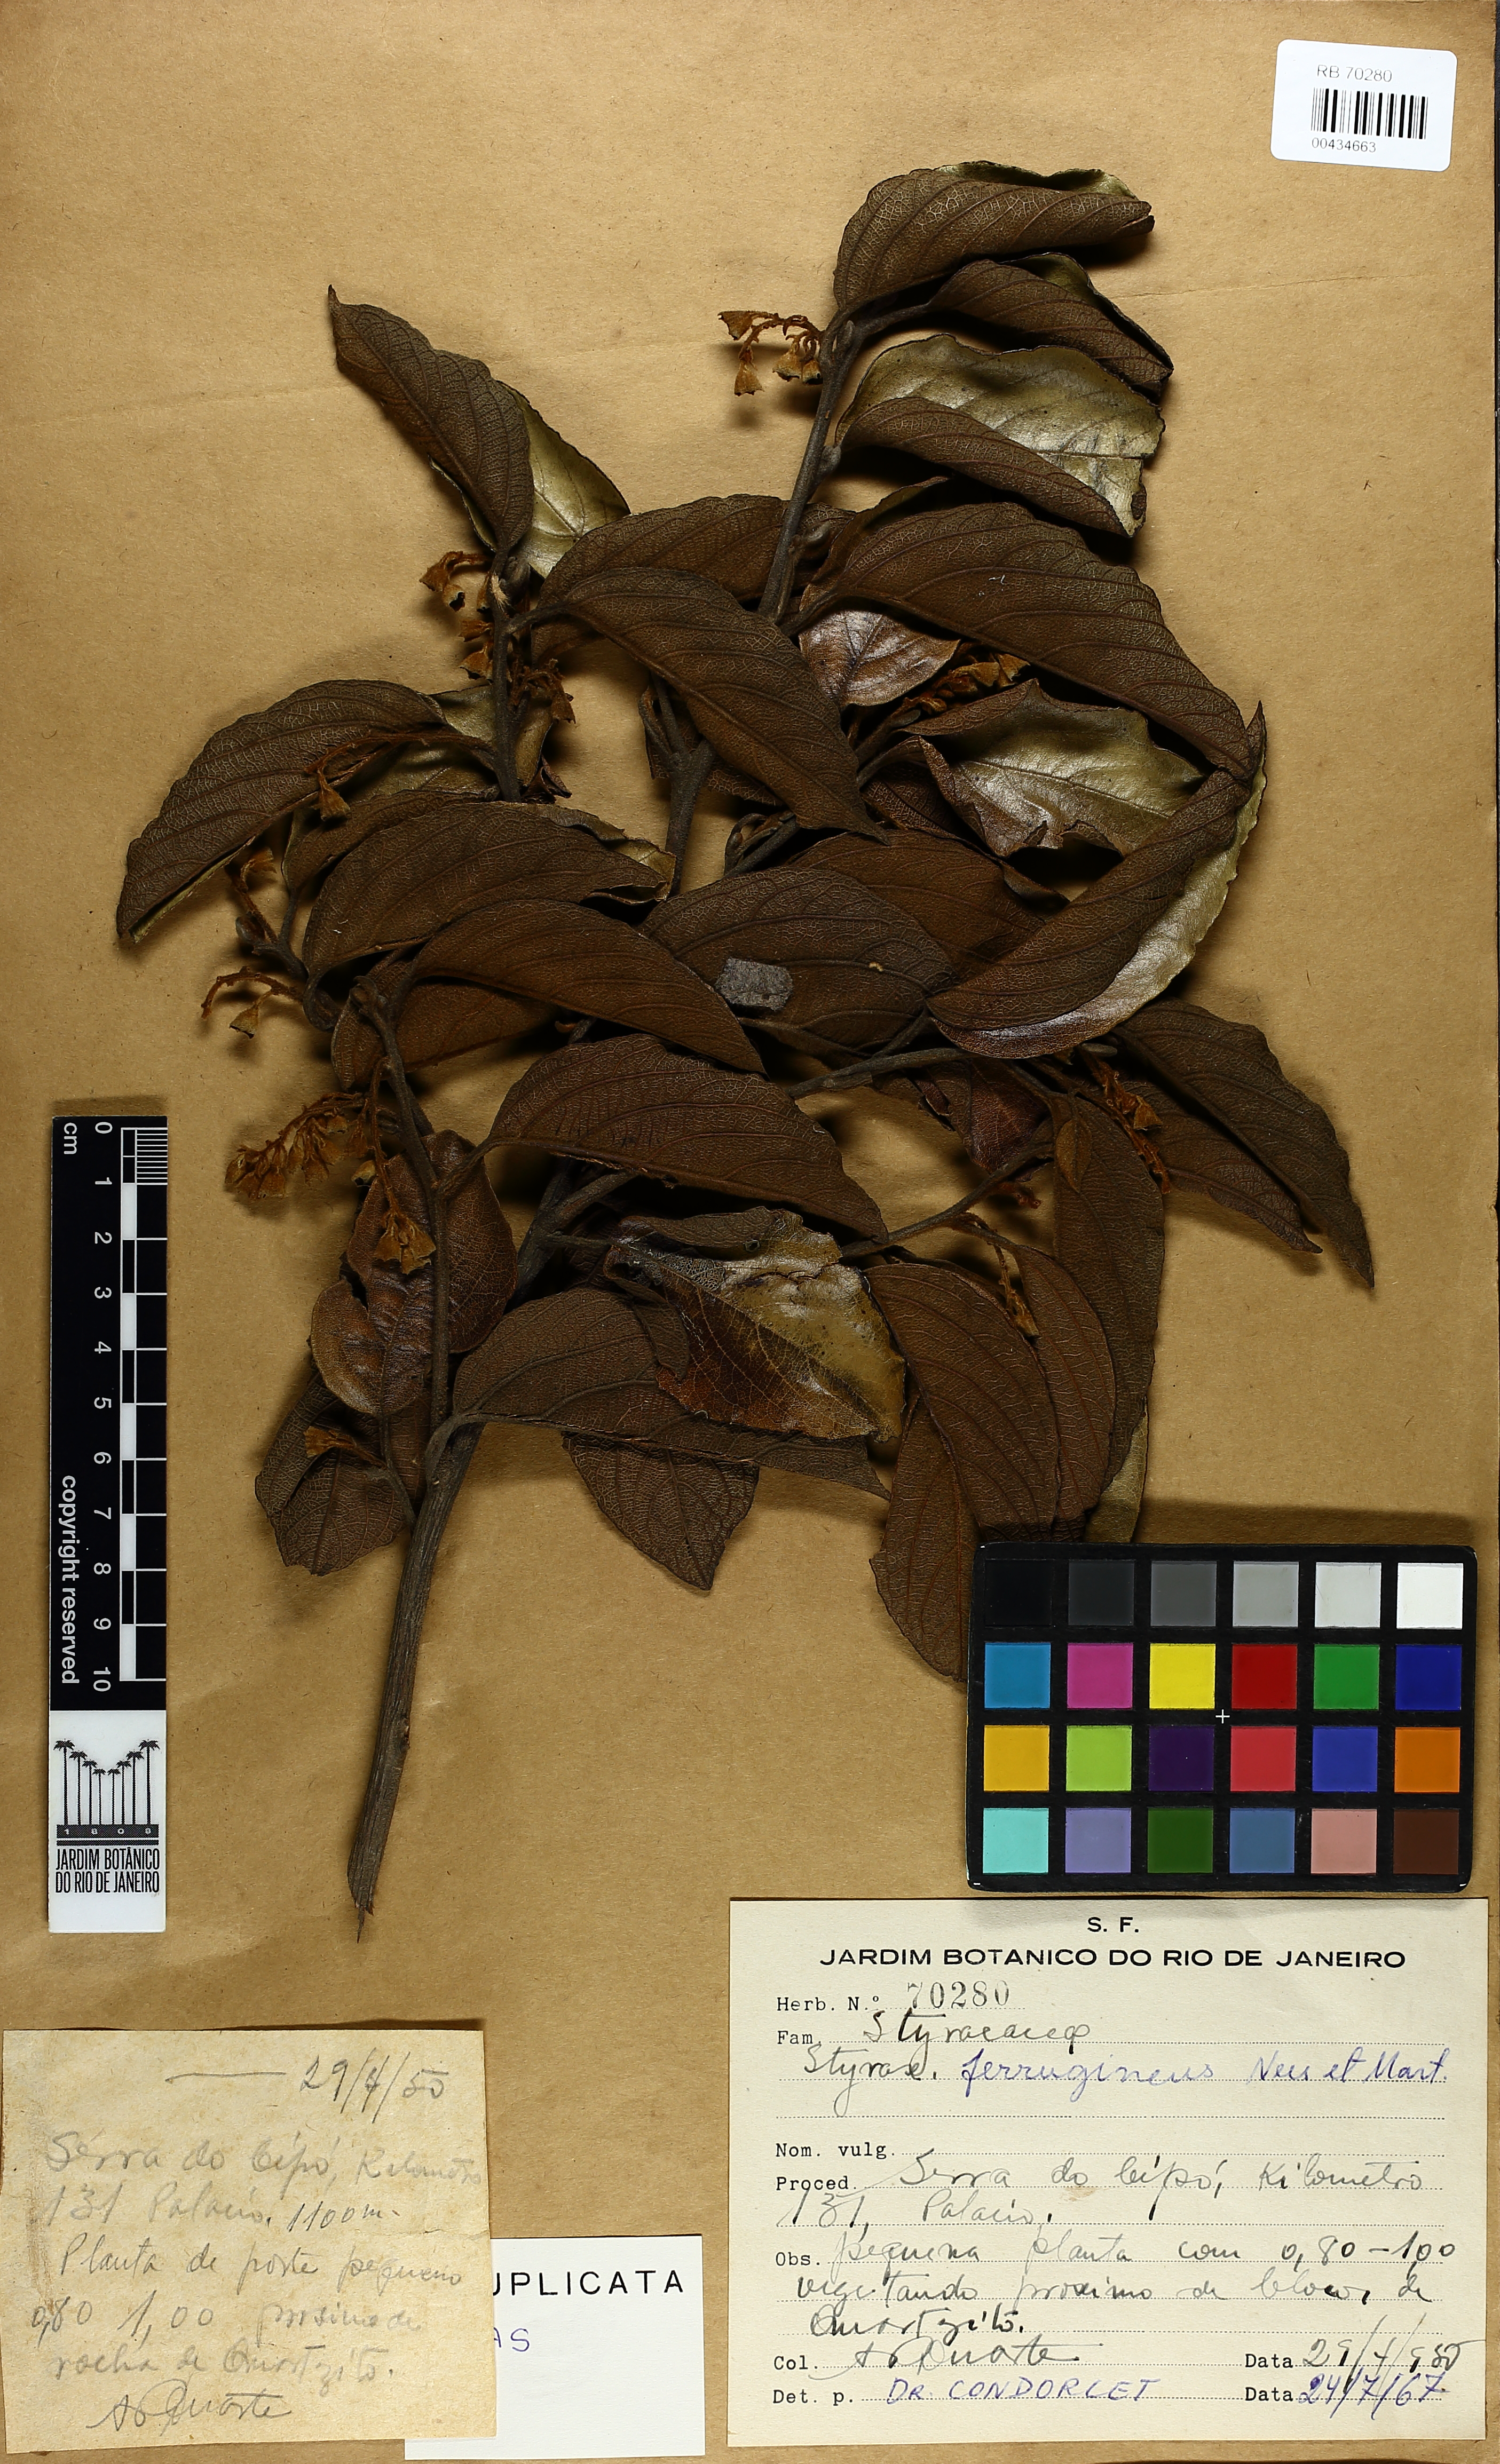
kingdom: Plantae
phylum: Tracheophyta
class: Magnoliopsida
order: Ericales
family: Styracaceae
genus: Styrax
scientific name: Styrax ferrugineus
